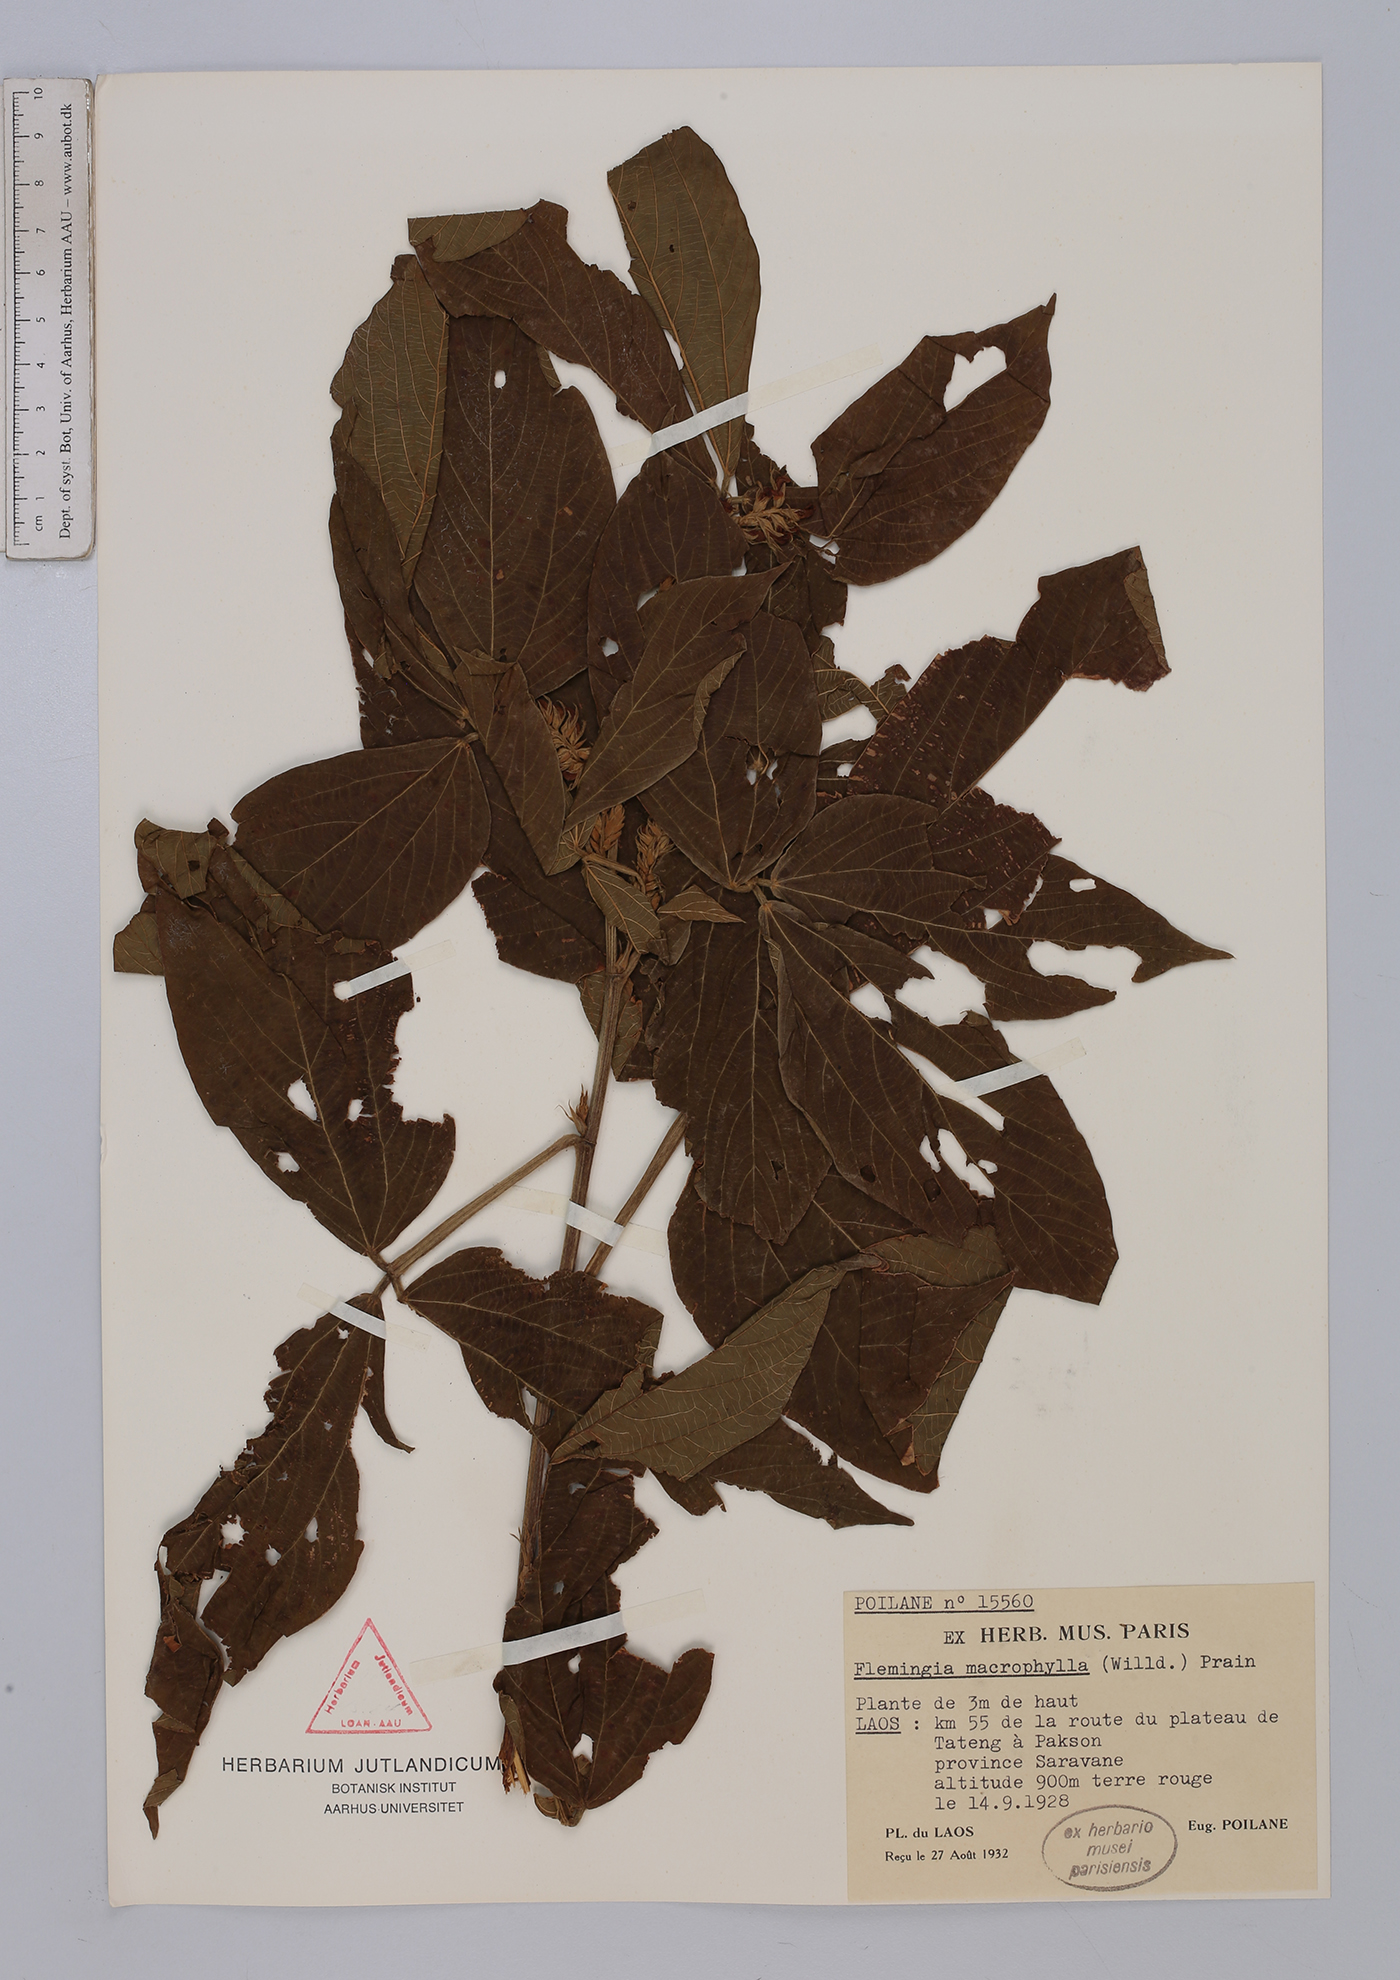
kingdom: Plantae
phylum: Tracheophyta
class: Magnoliopsida
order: Fabales
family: Fabaceae
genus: Flemingia
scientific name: Flemingia macrophylla
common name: Flemingia
